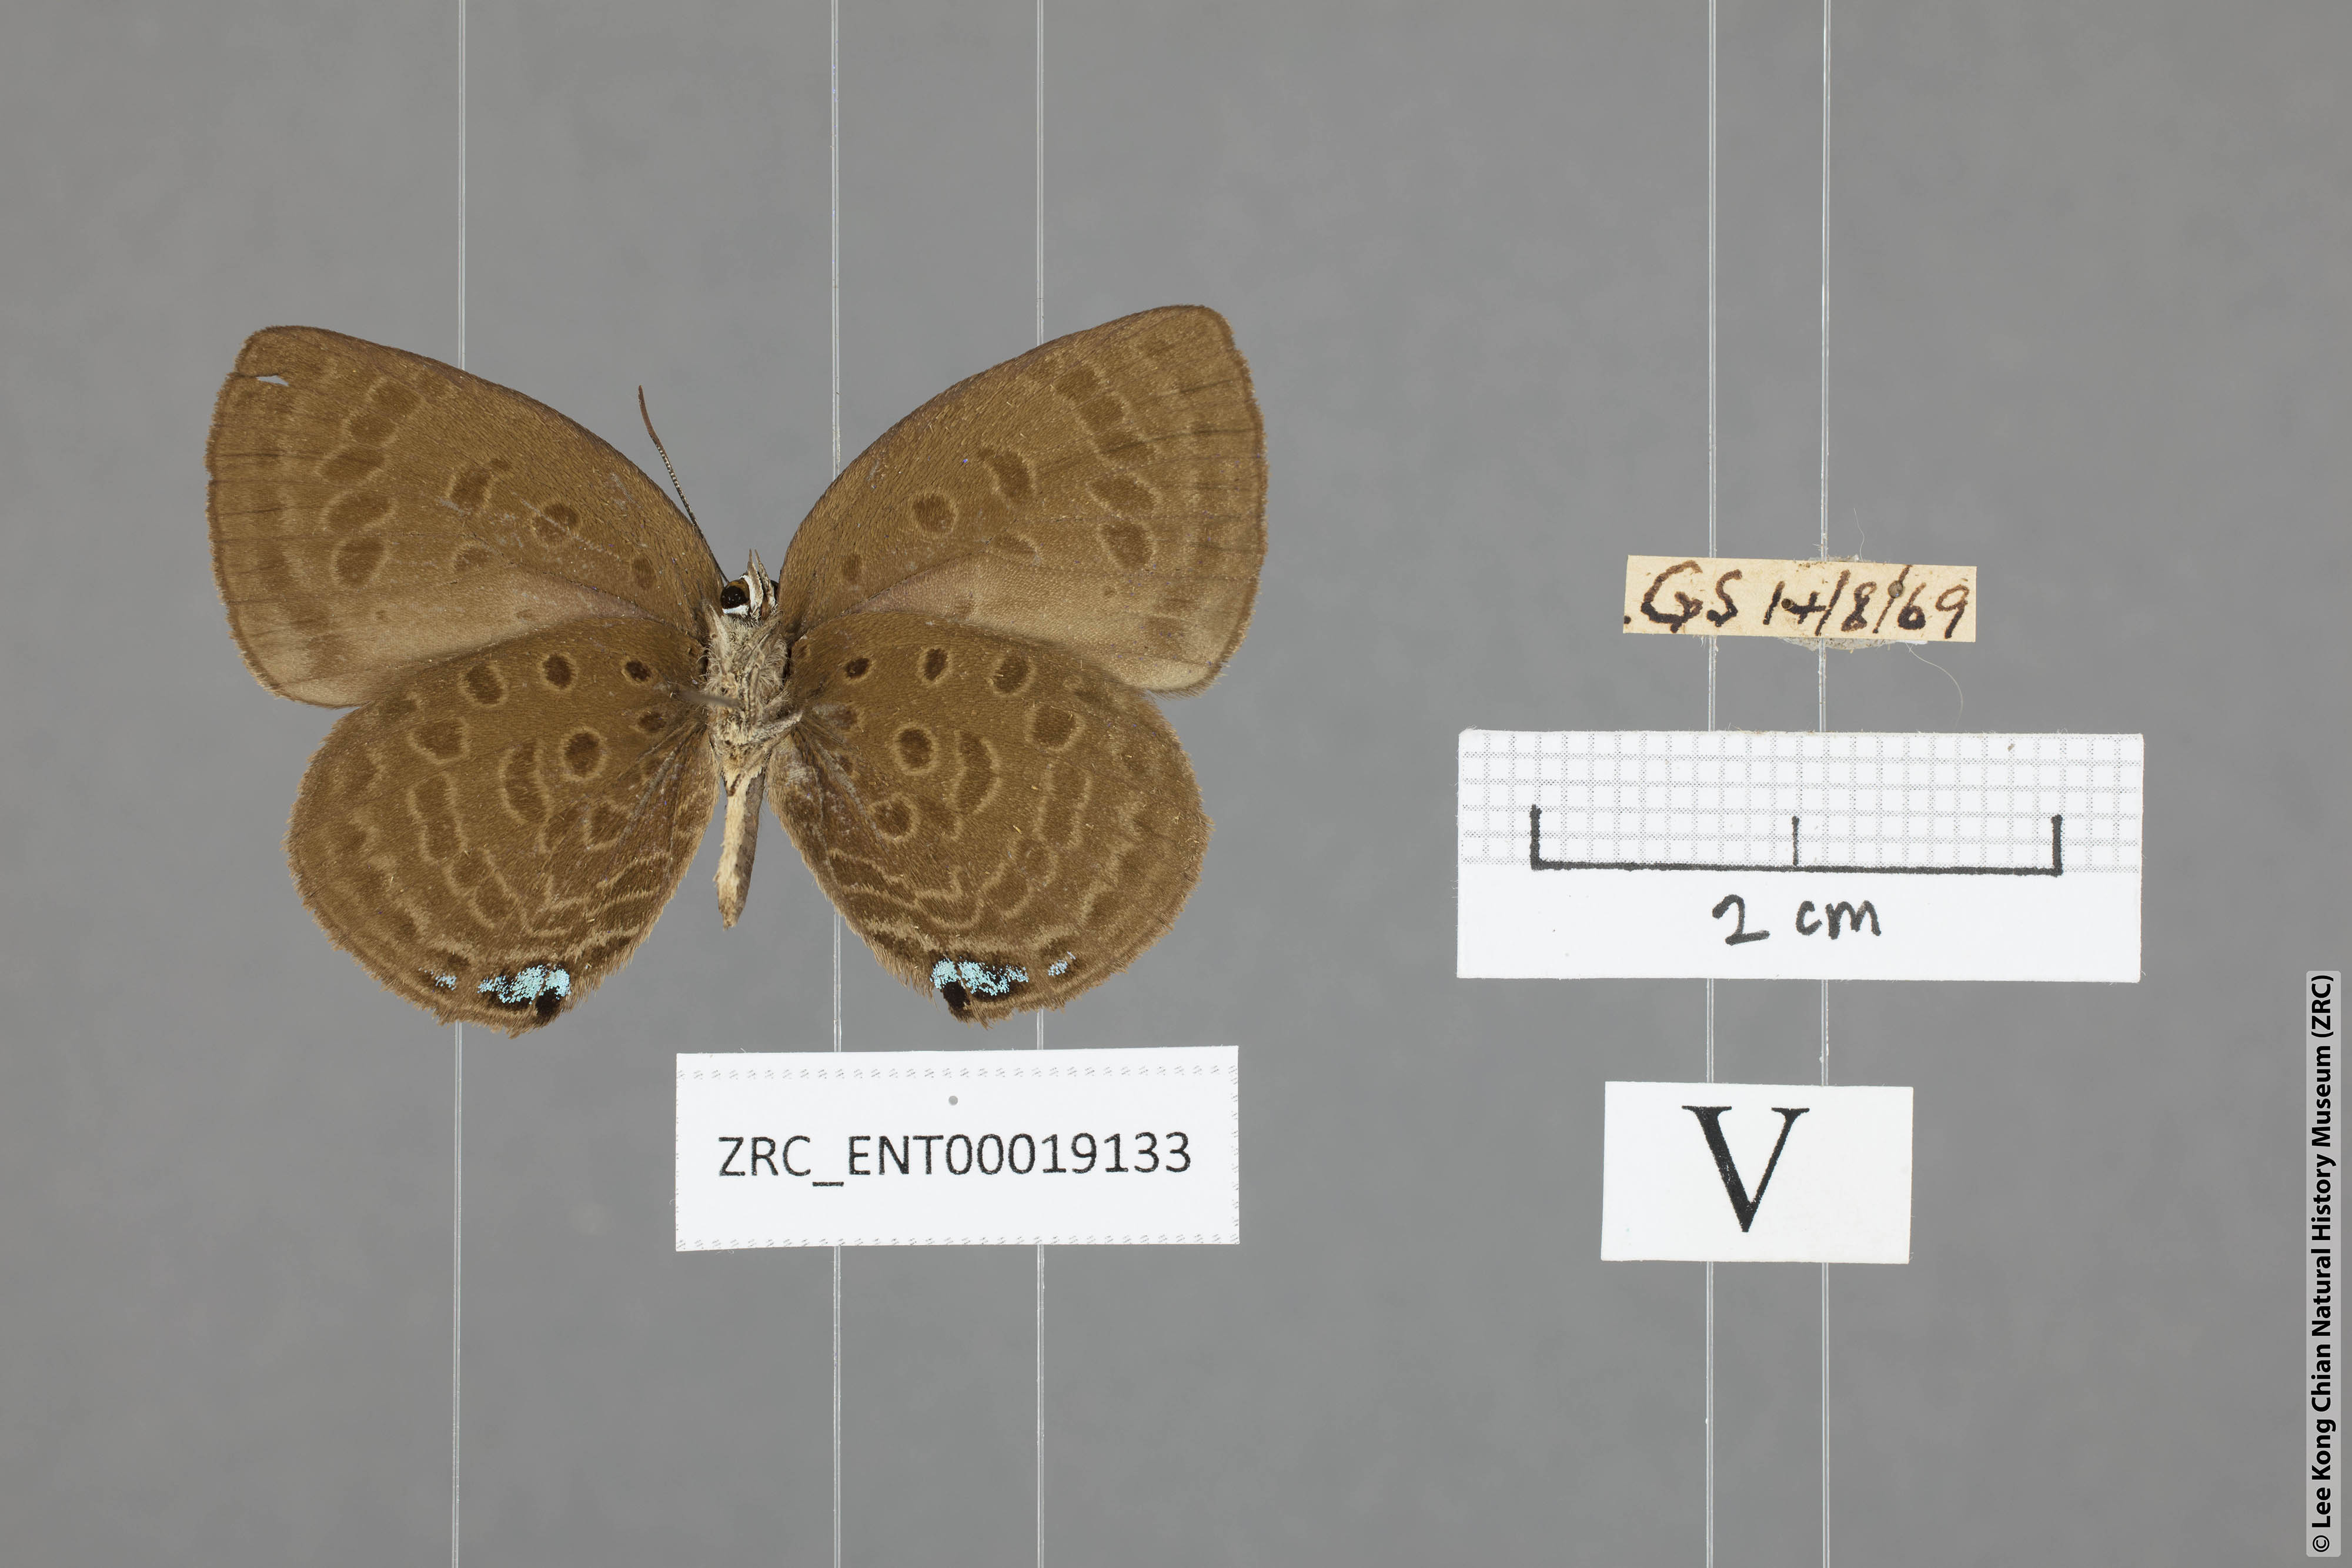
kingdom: Animalia
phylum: Arthropoda
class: Insecta
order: Lepidoptera
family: Lycaenidae
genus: Arhopala
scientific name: Arhopala amphimuta
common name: Broad yellow oakblue
